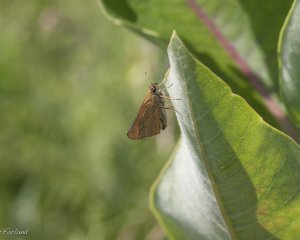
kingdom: Animalia
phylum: Arthropoda
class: Insecta
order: Lepidoptera
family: Hesperiidae
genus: Thymelicus
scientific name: Thymelicus lineola
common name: European Skipper
